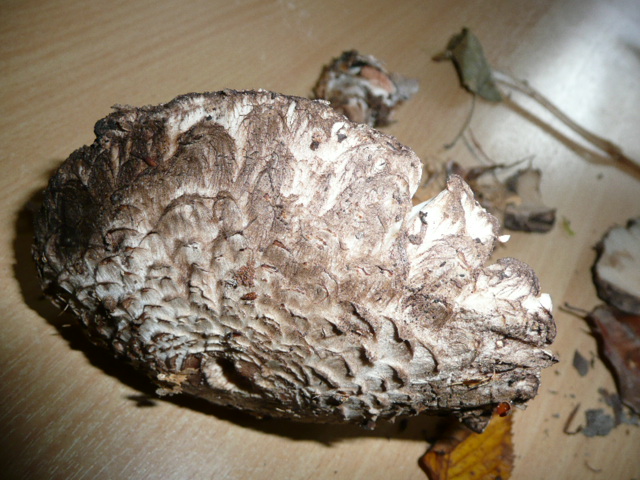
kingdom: Fungi
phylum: Basidiomycota
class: Agaricomycetes
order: Agaricales
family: Agaricaceae
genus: Chlorophyllum
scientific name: Chlorophyllum olivieri
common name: almindelig rabarberhat
